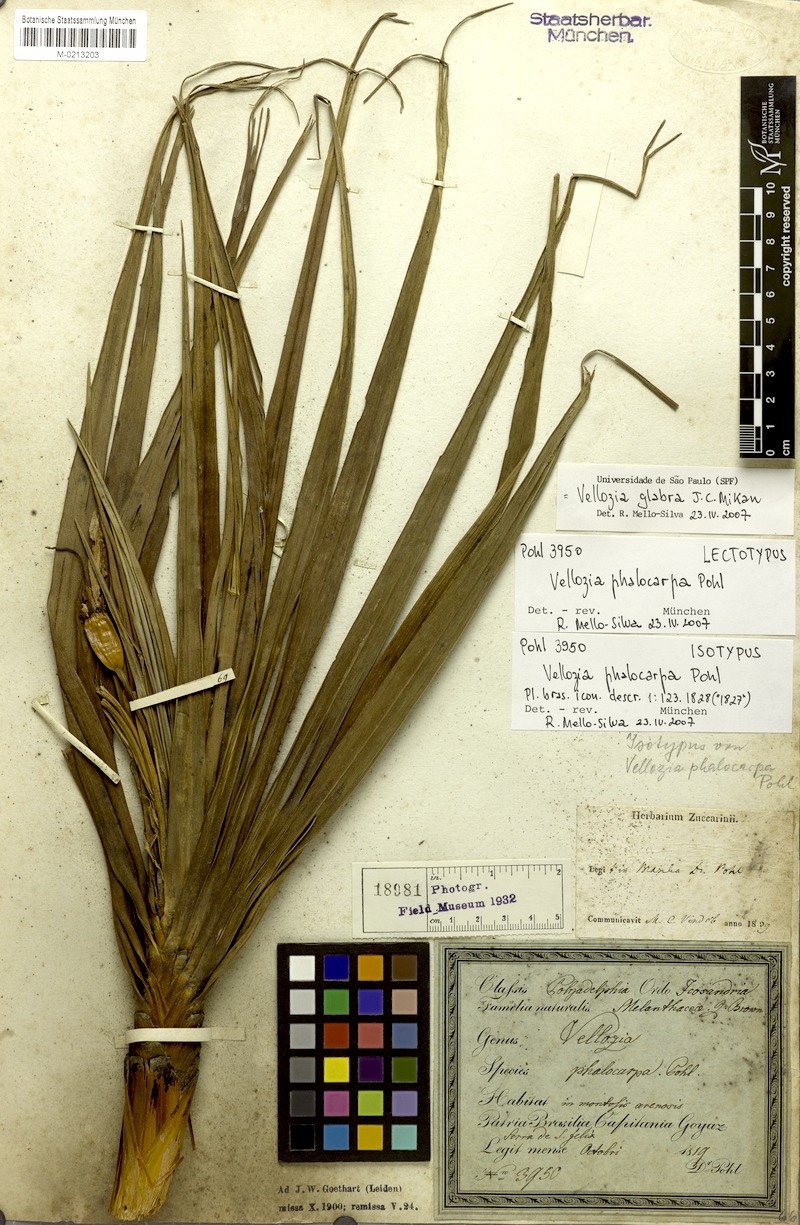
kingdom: Plantae
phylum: Tracheophyta
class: Liliopsida
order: Pandanales
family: Velloziaceae
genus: Vellozia
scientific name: Vellozia glabra
